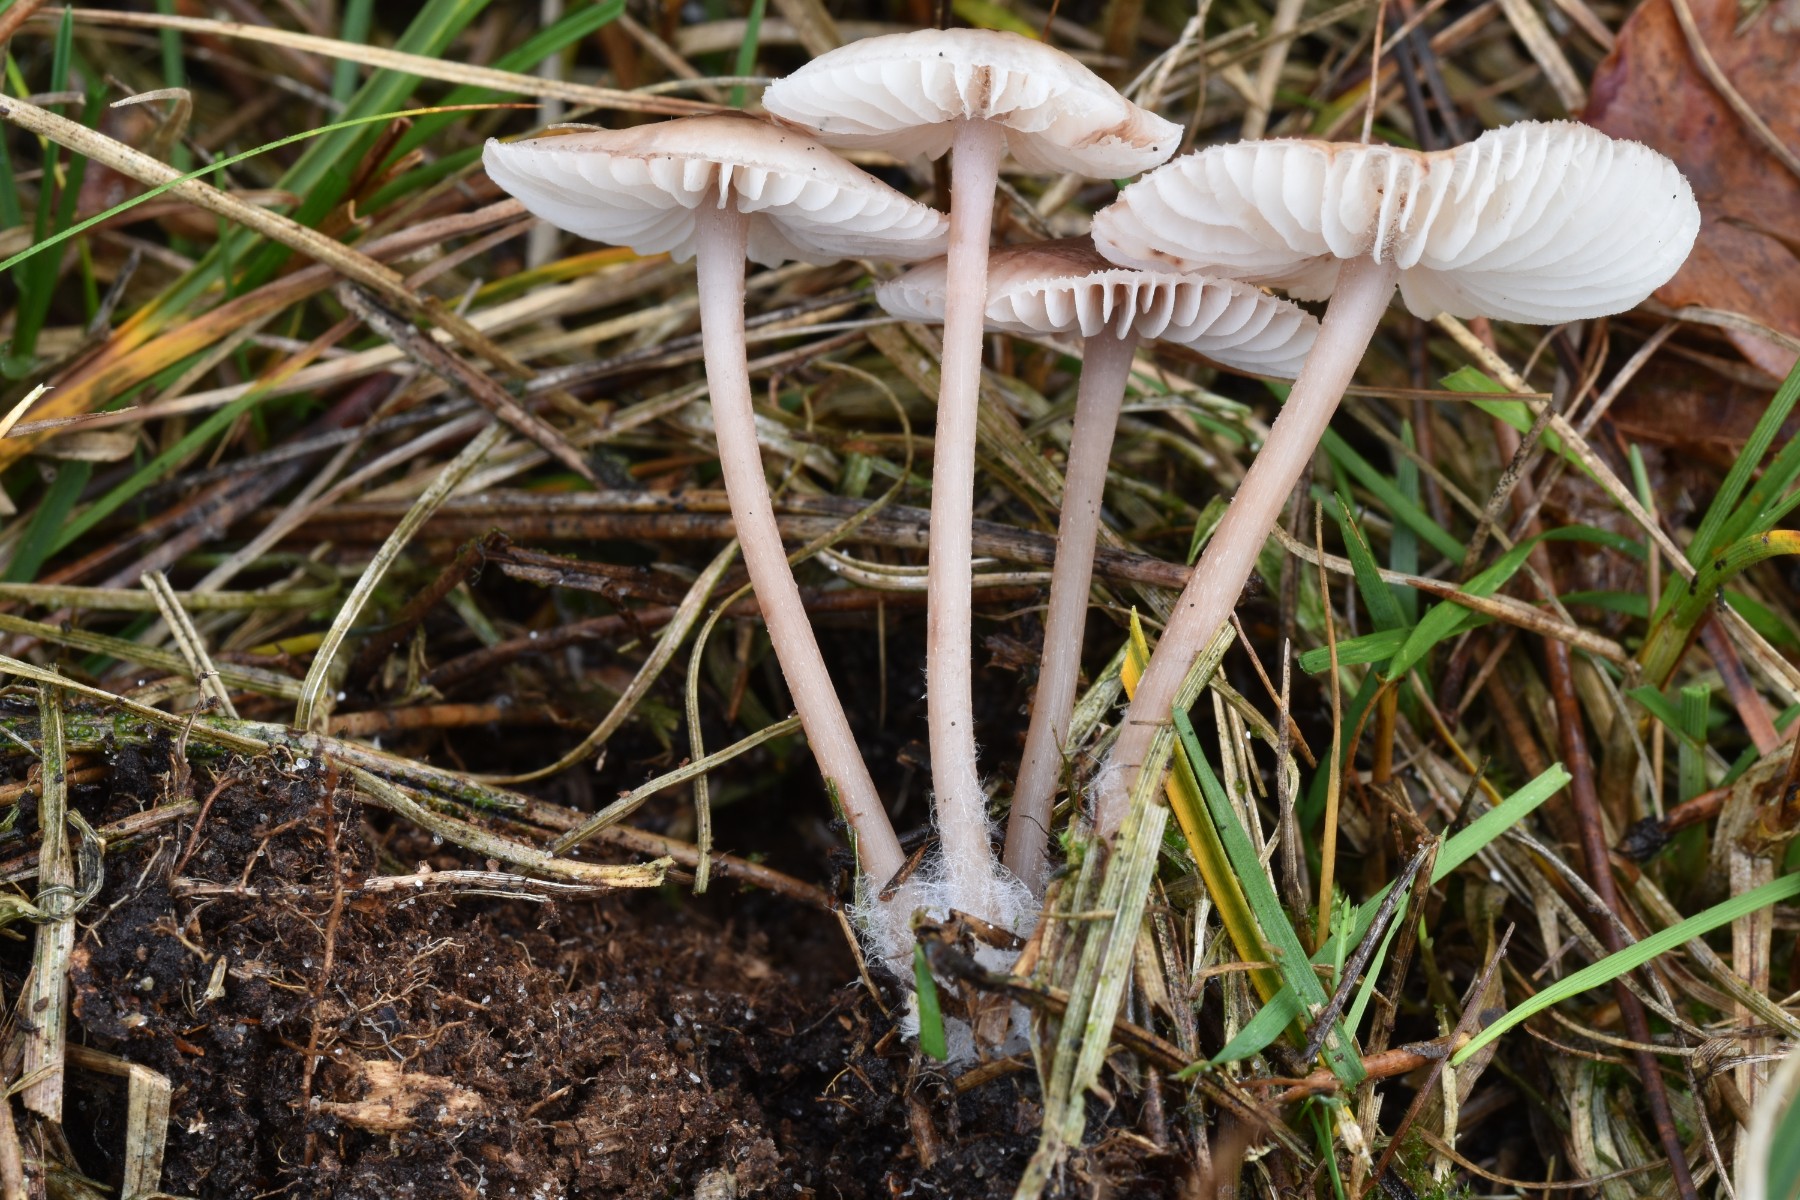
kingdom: Fungi
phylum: Basidiomycota
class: Agaricomycetes
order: Agaricales
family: Mycenaceae
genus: Mycena
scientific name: Mycena zephirus
